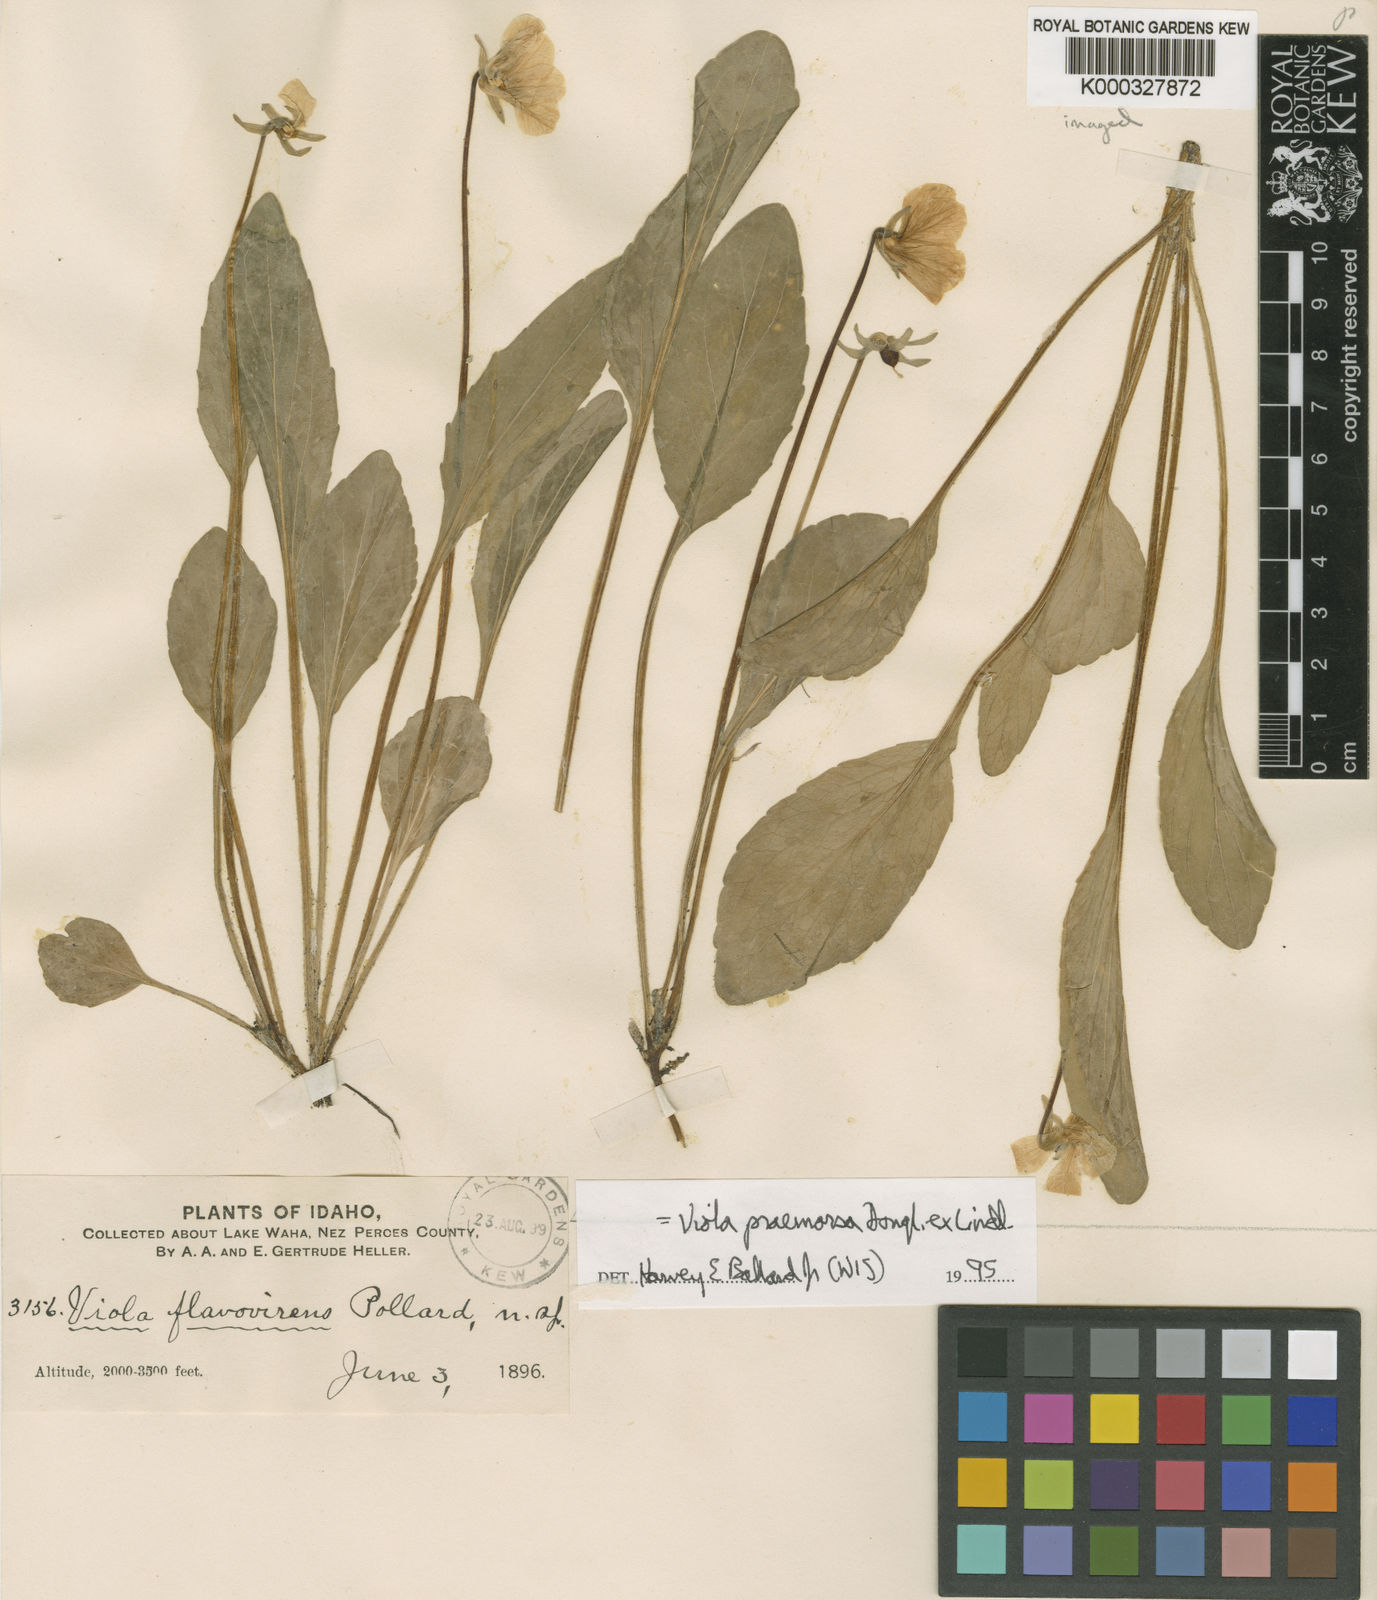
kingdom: Plantae
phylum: Tracheophyta
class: Magnoliopsida
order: Malpighiales
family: Violaceae
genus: Viola
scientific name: Viola praemorsa
